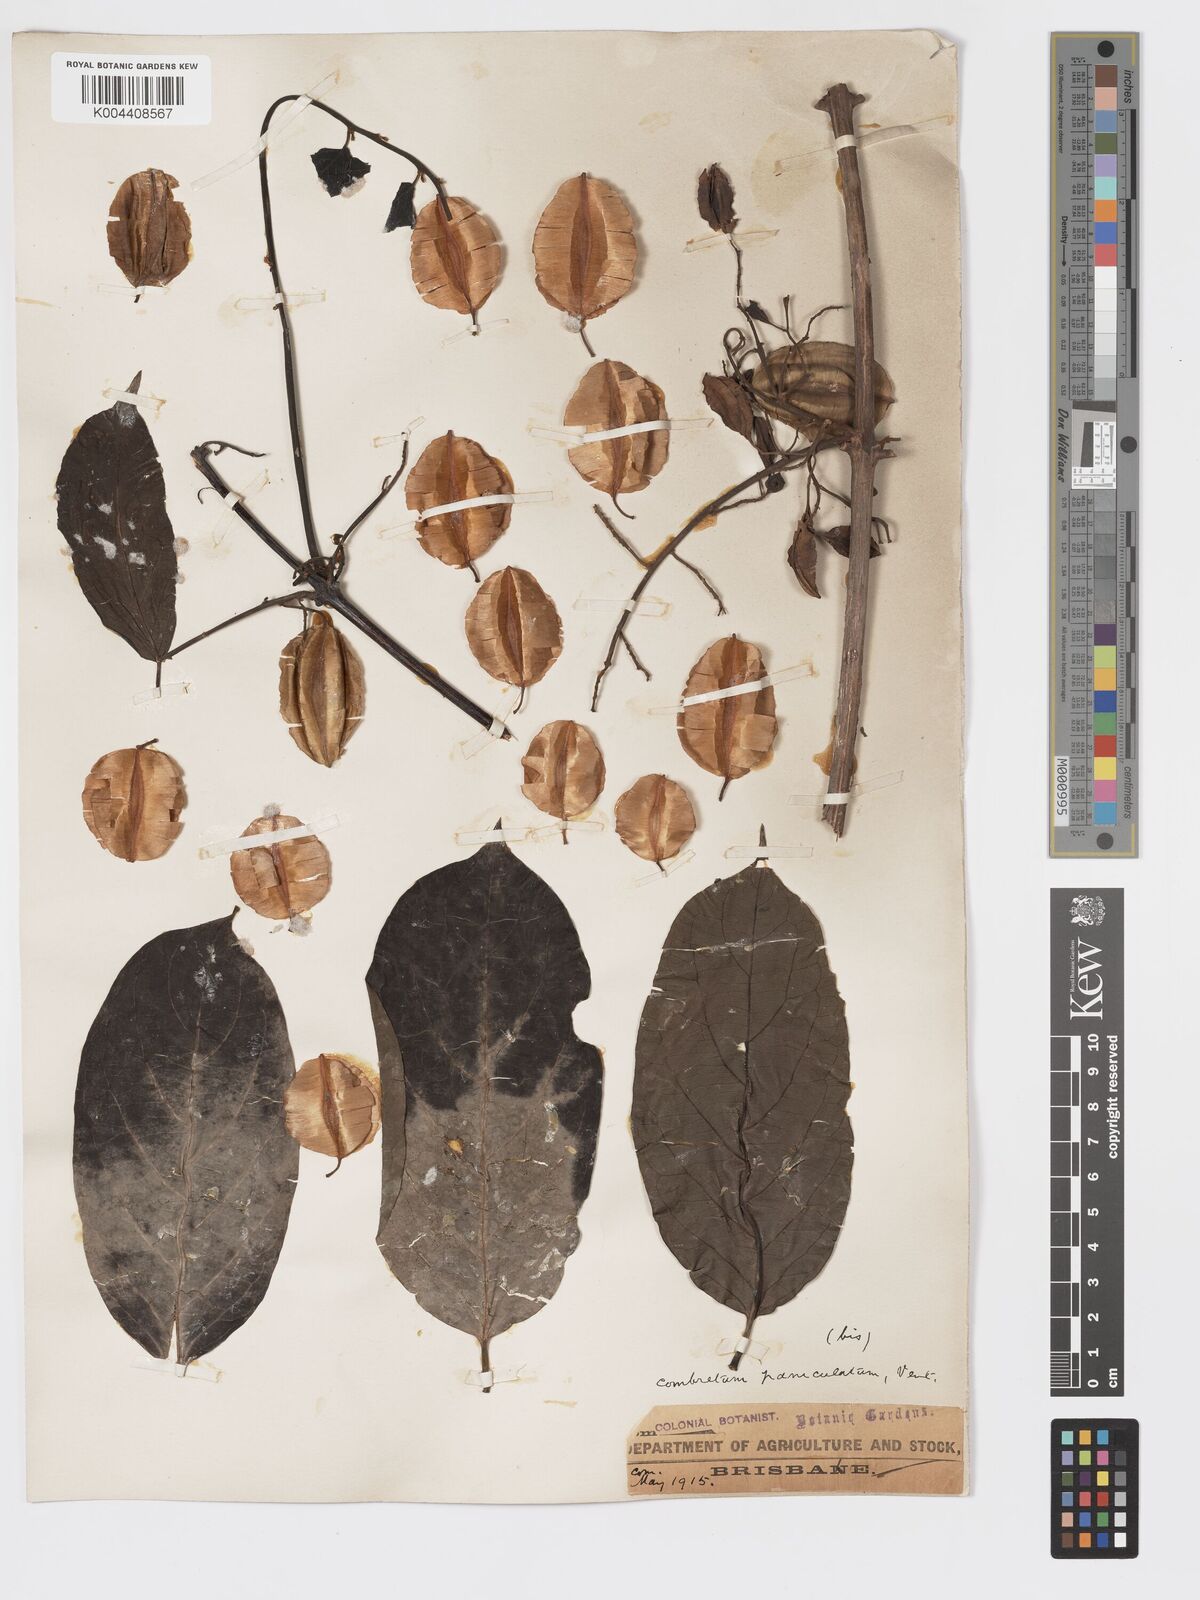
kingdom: Plantae
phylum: Tracheophyta
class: Magnoliopsida
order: Myrtales
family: Combretaceae
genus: Combretum
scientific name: Combretum paniculatum
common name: Fire vine
